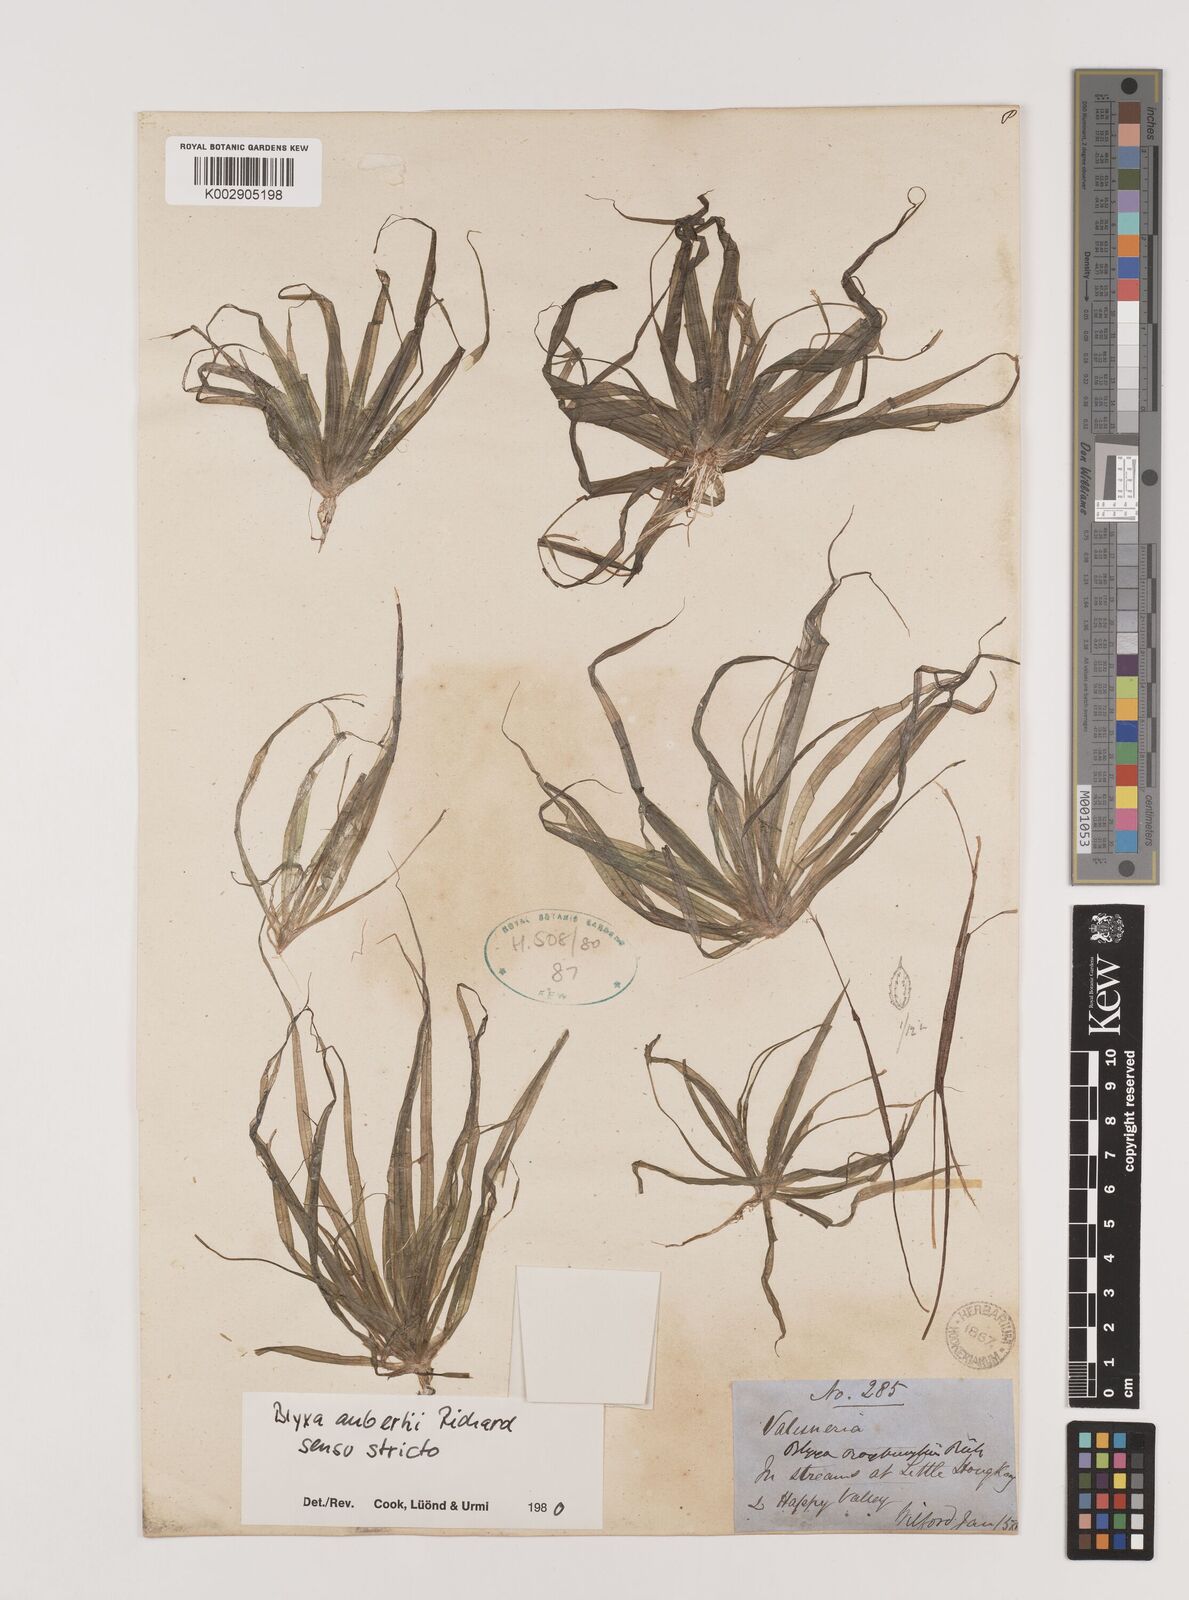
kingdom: Plantae
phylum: Tracheophyta
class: Liliopsida
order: Alismatales
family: Hydrocharitaceae
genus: Blyxa
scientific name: Blyxa aubertii
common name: Roundfruit blyxa
